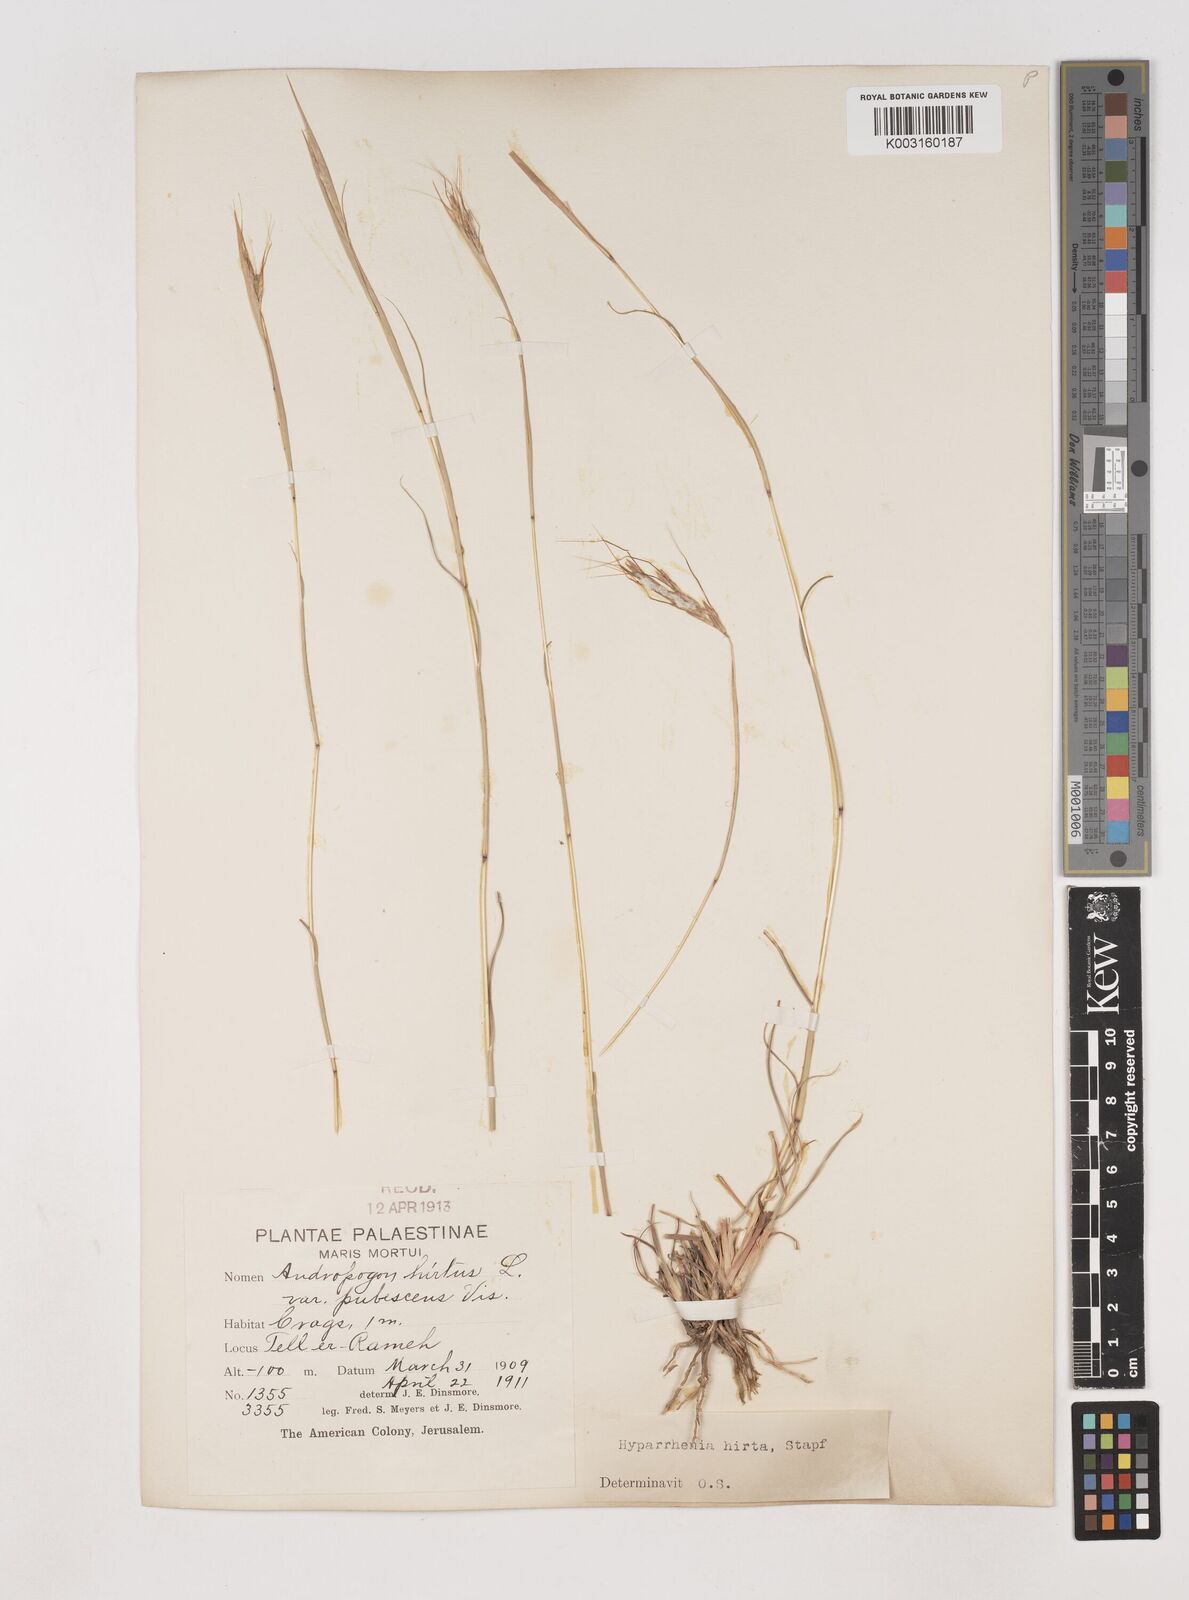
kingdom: Plantae
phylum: Tracheophyta
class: Liliopsida
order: Poales
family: Poaceae
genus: Hyparrhenia
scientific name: Hyparrhenia hirta
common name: Thatching grass
